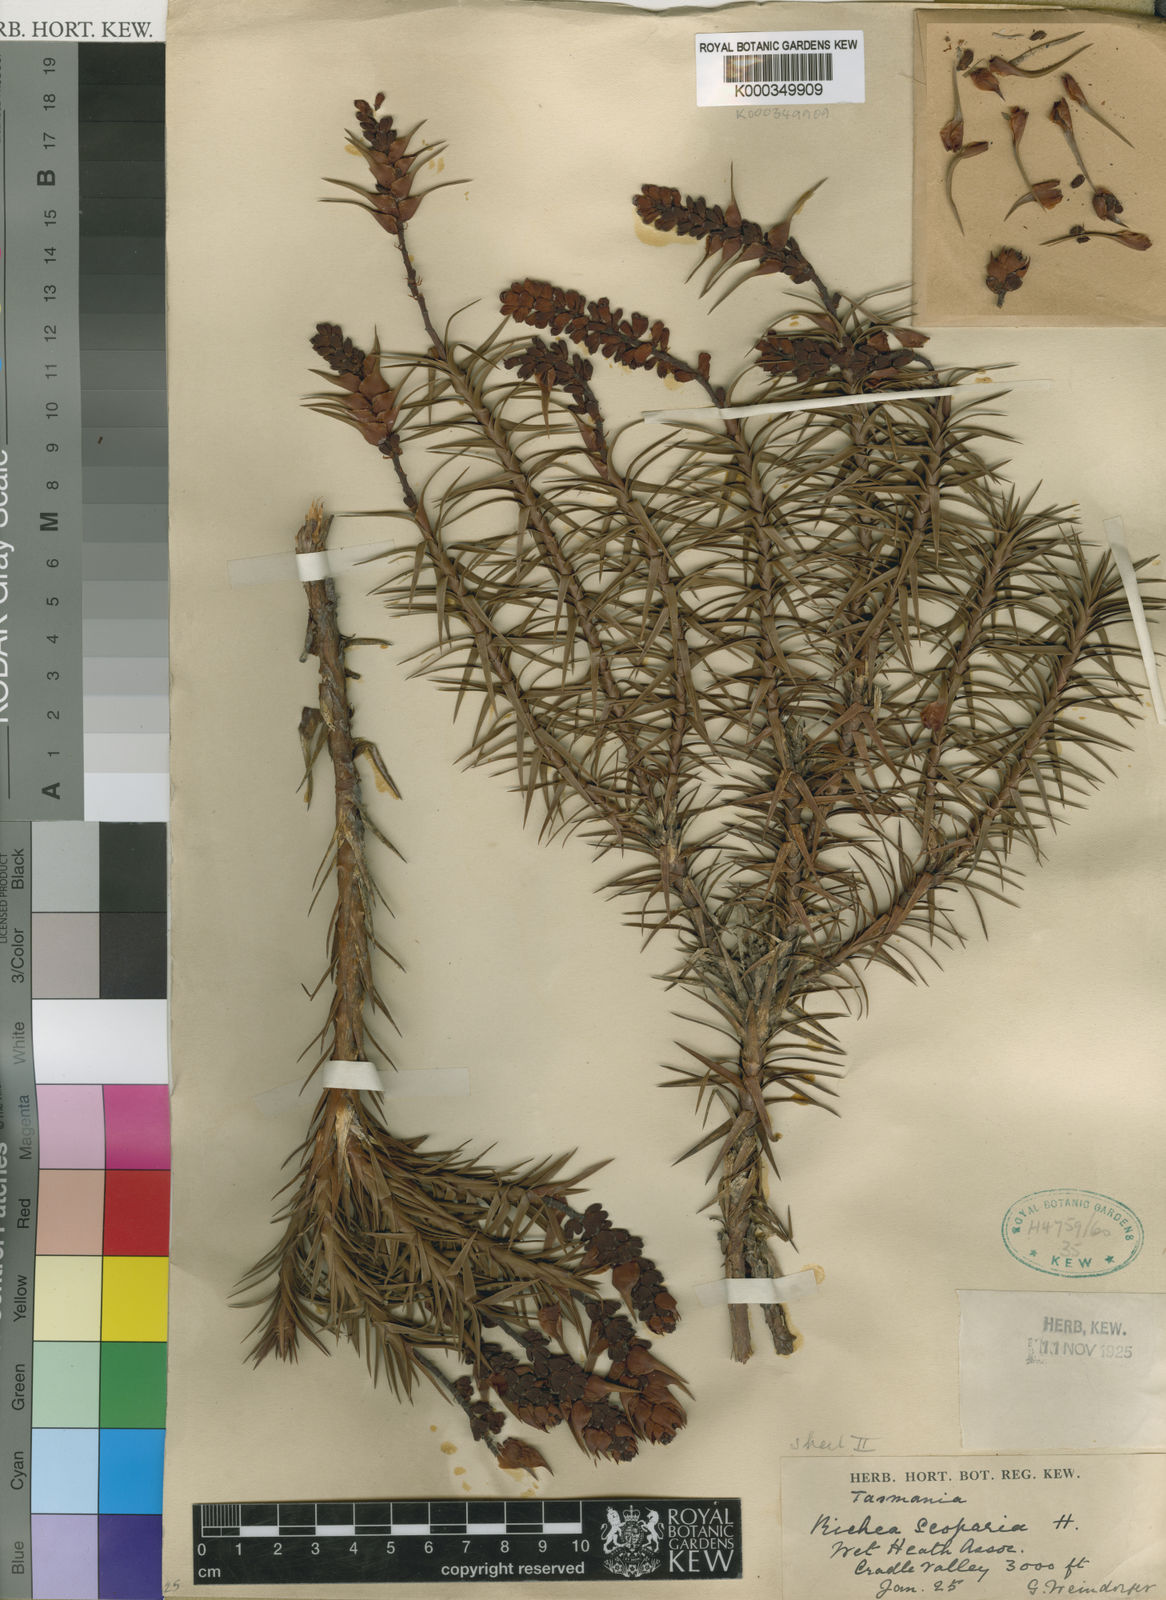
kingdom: Plantae
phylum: Tracheophyta
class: Magnoliopsida
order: Ericales
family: Ericaceae
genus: Dracophyllum
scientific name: Dracophyllum persistentifolium
